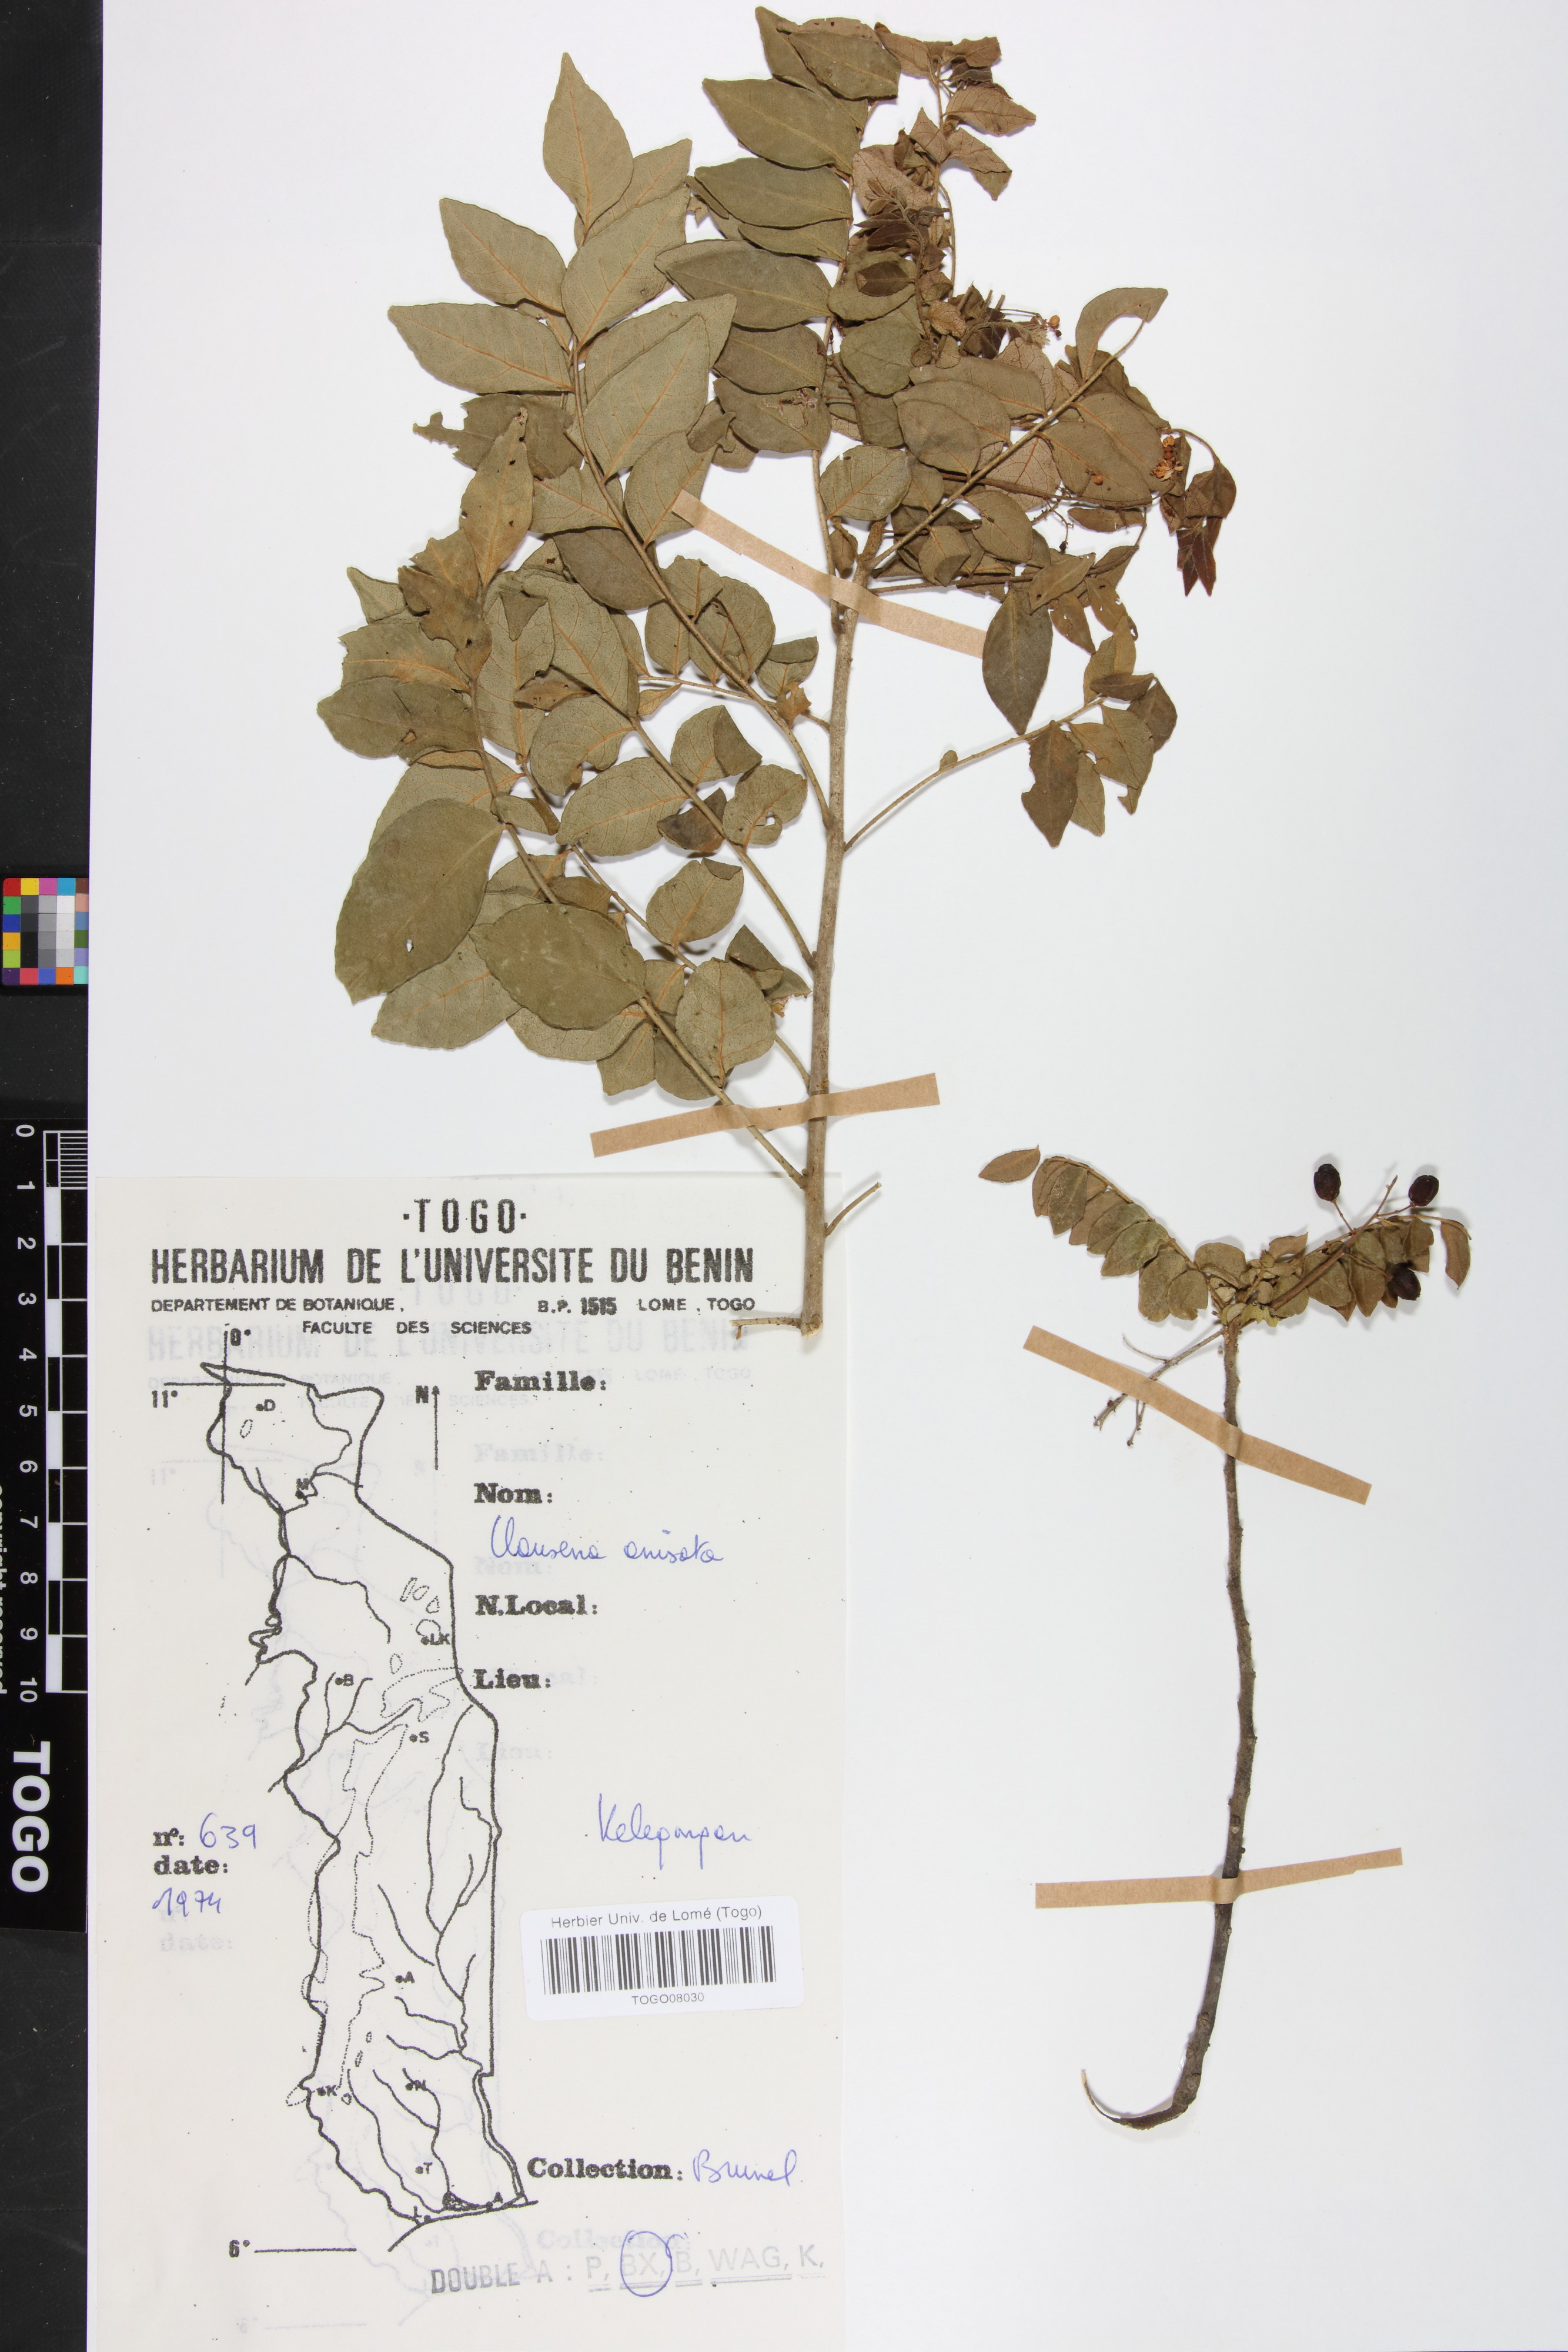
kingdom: Plantae
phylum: Tracheophyta
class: Magnoliopsida
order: Sapindales
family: Rutaceae
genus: Clausena
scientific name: Clausena anisata
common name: Horsewood
